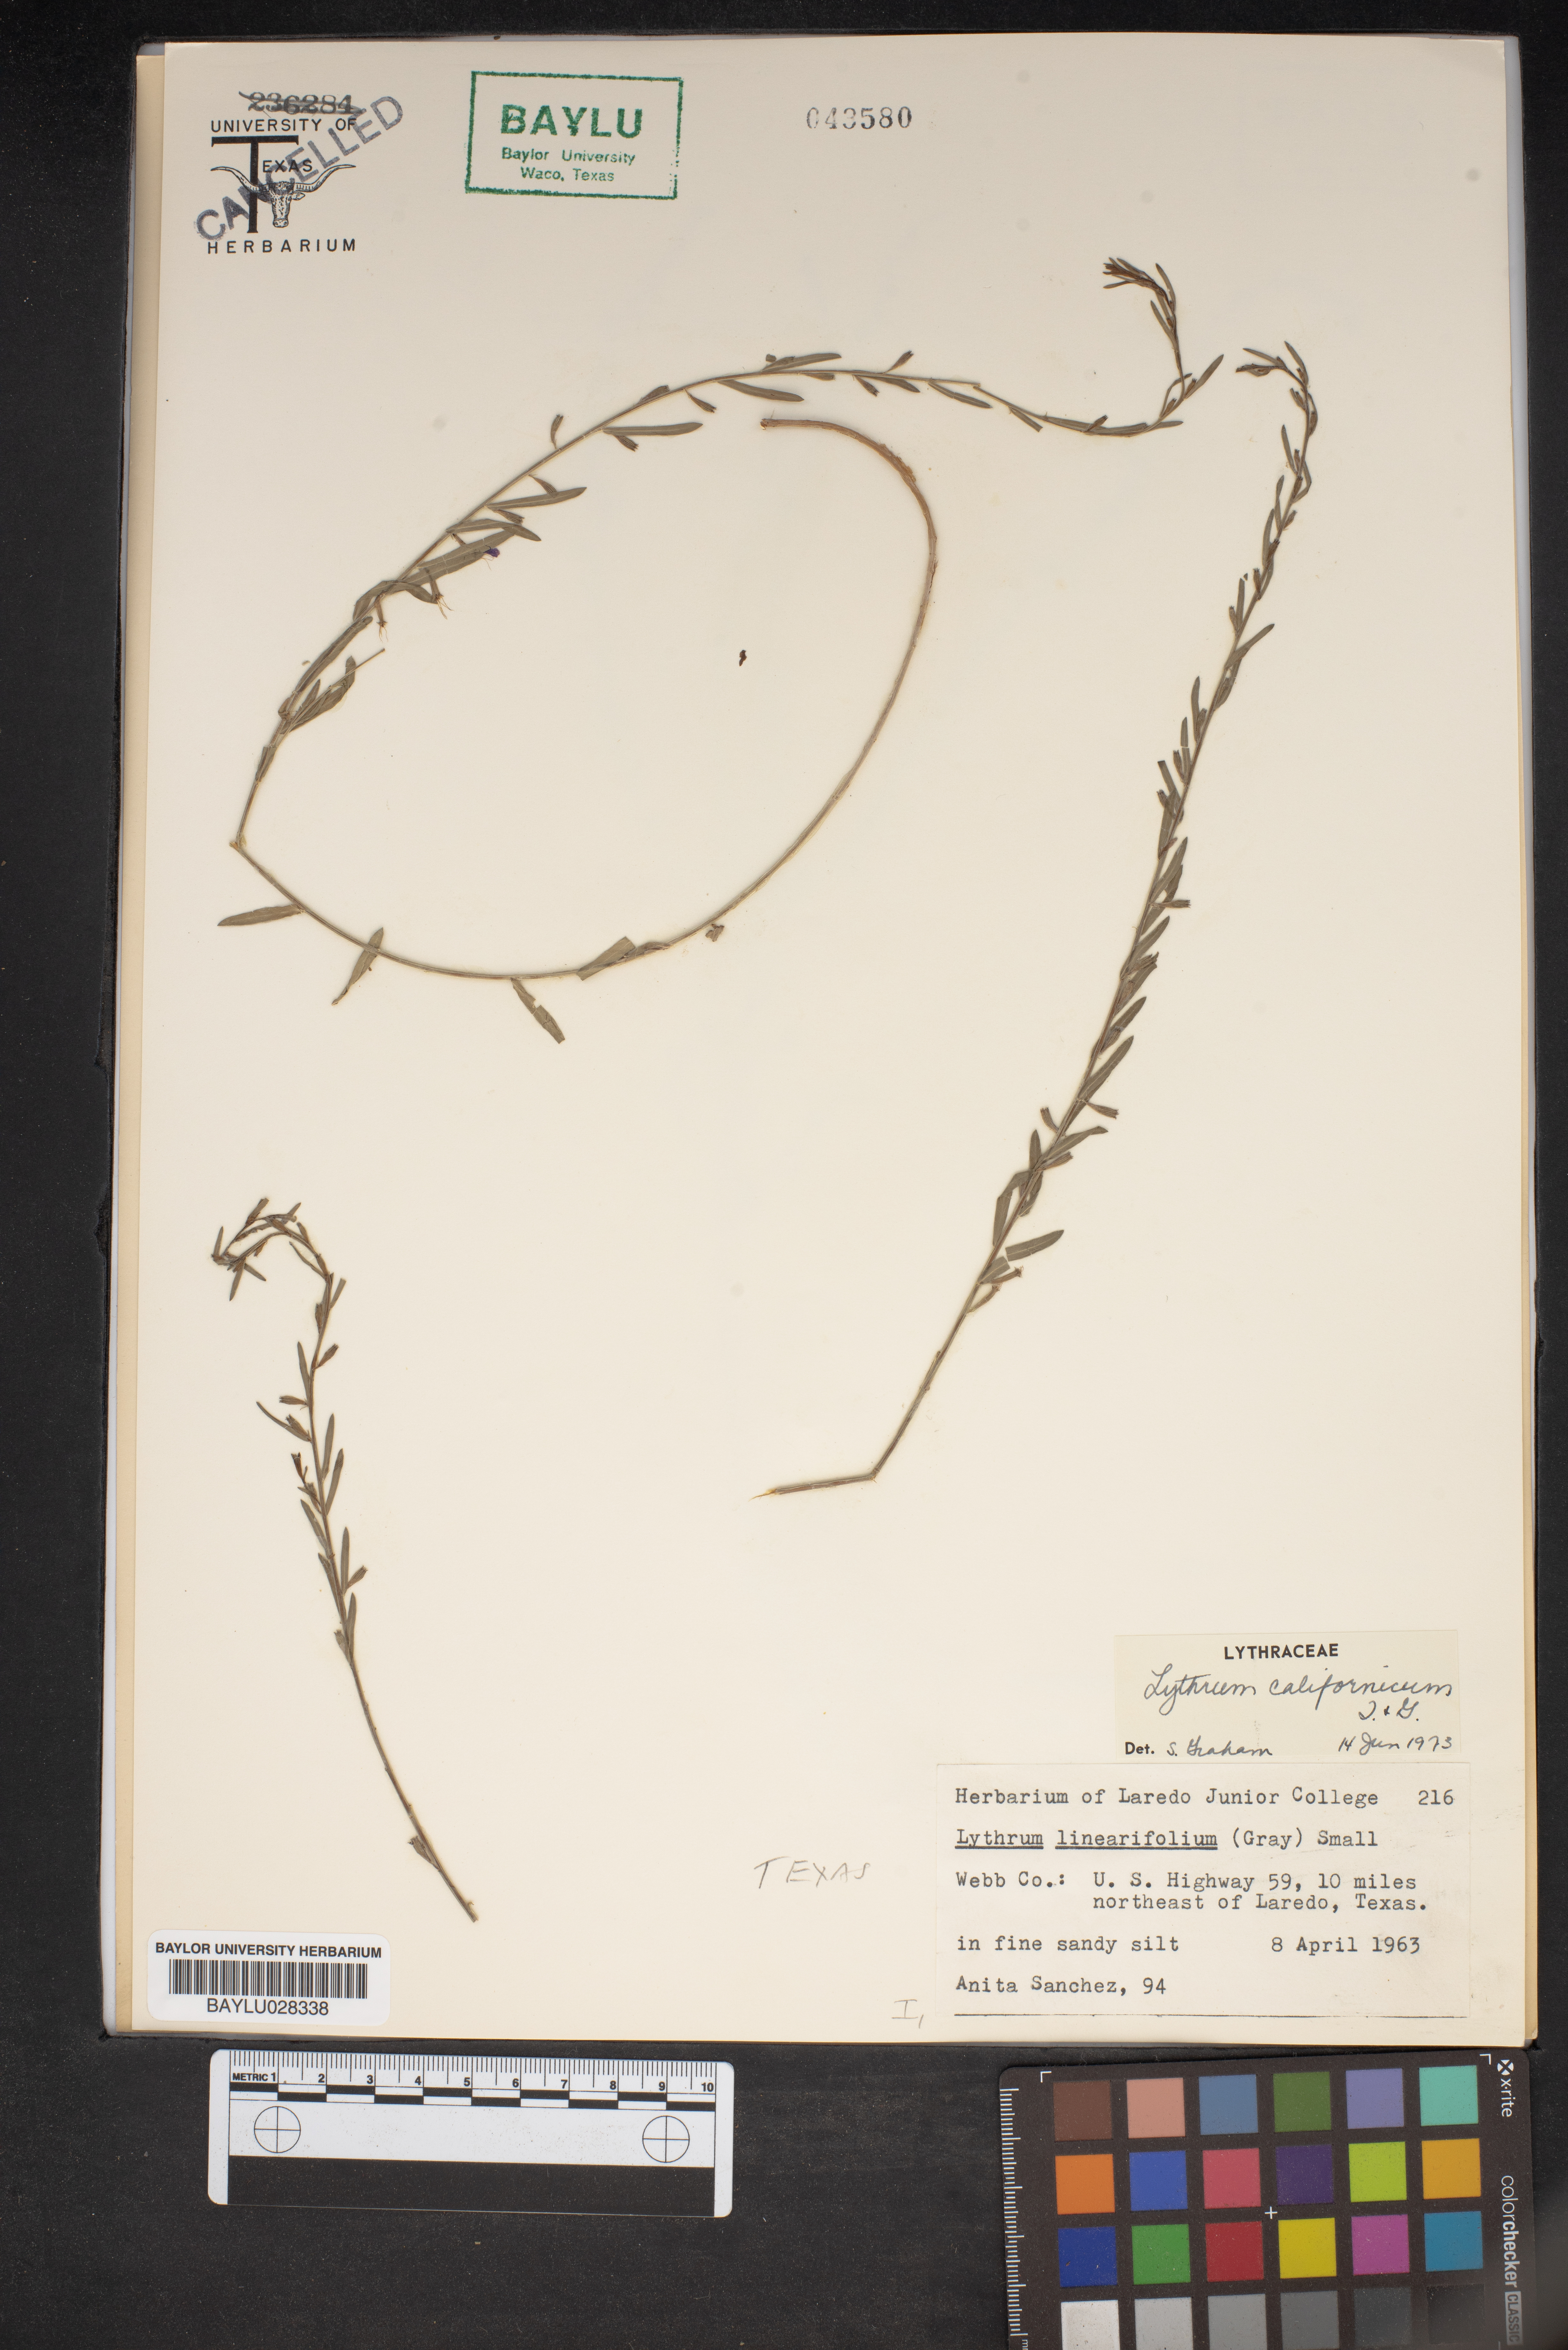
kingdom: Plantae
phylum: Tracheophyta
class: Magnoliopsida
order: Myrtales
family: Lythraceae
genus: Lythrum
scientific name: Lythrum californicum
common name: California loosestrife
